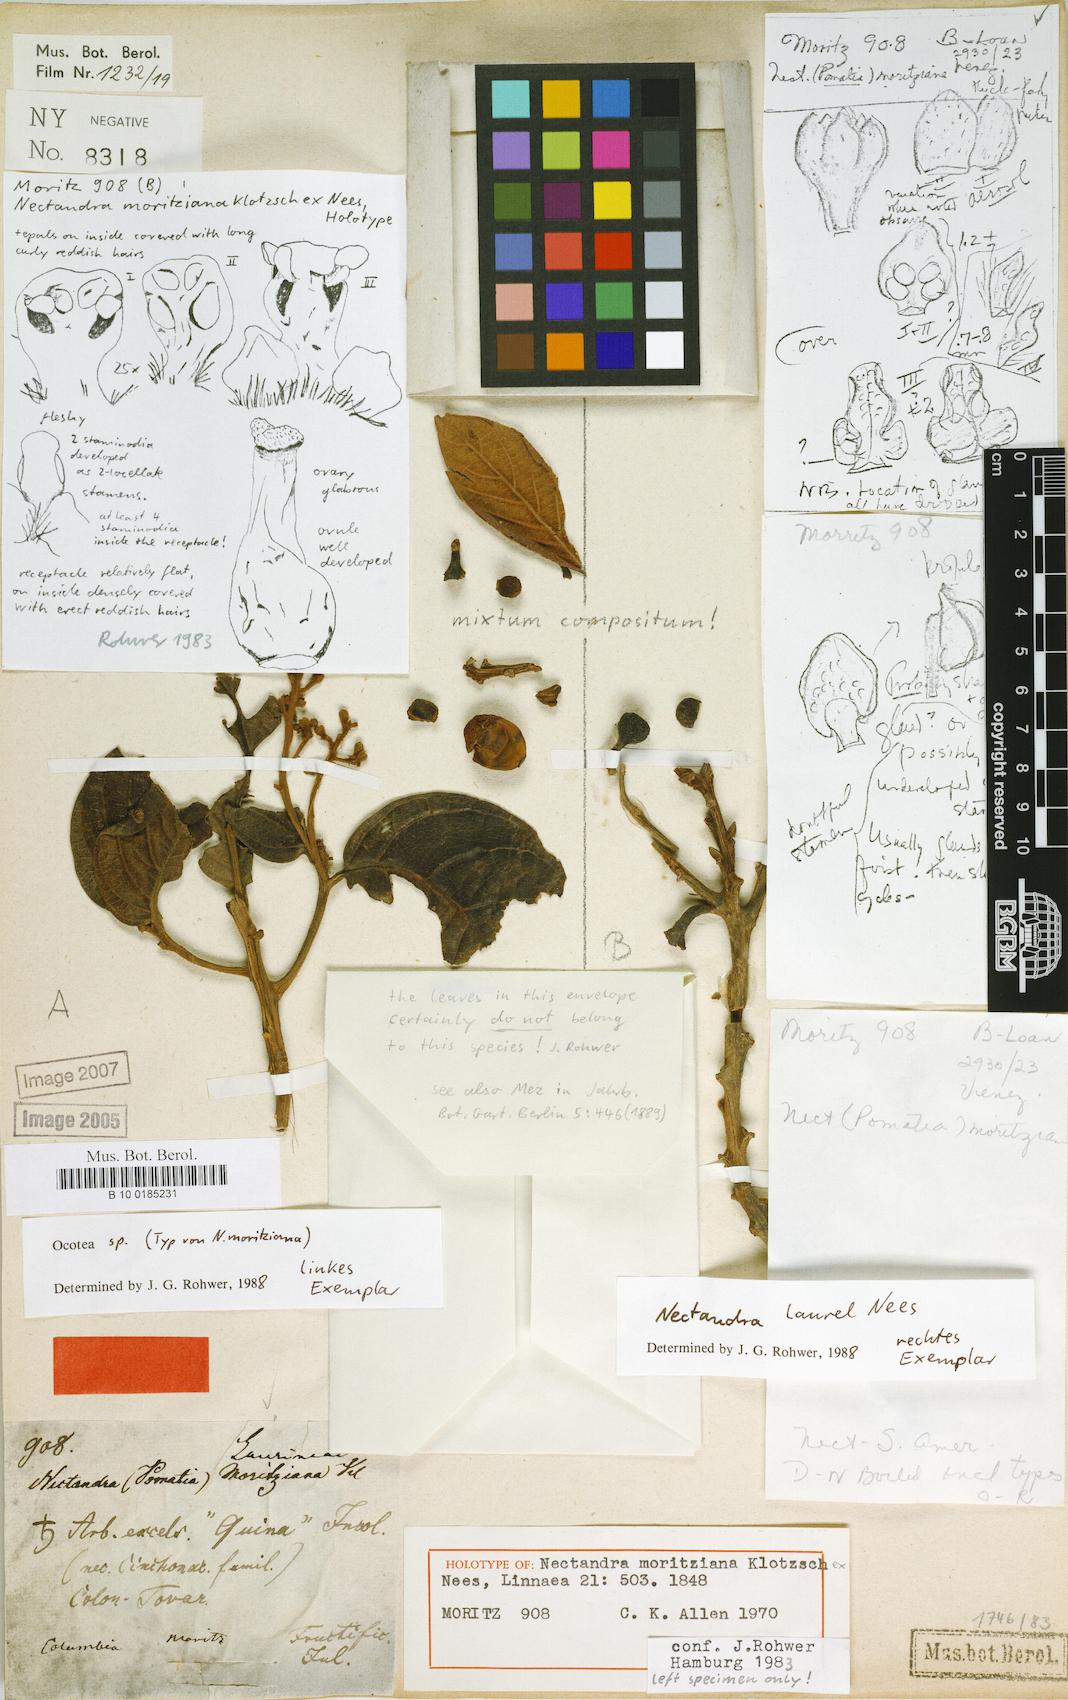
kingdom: Plantae
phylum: Tracheophyta
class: Magnoliopsida
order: Laurales
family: Lauraceae
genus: Nectandra
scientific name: Nectandra moritziana
